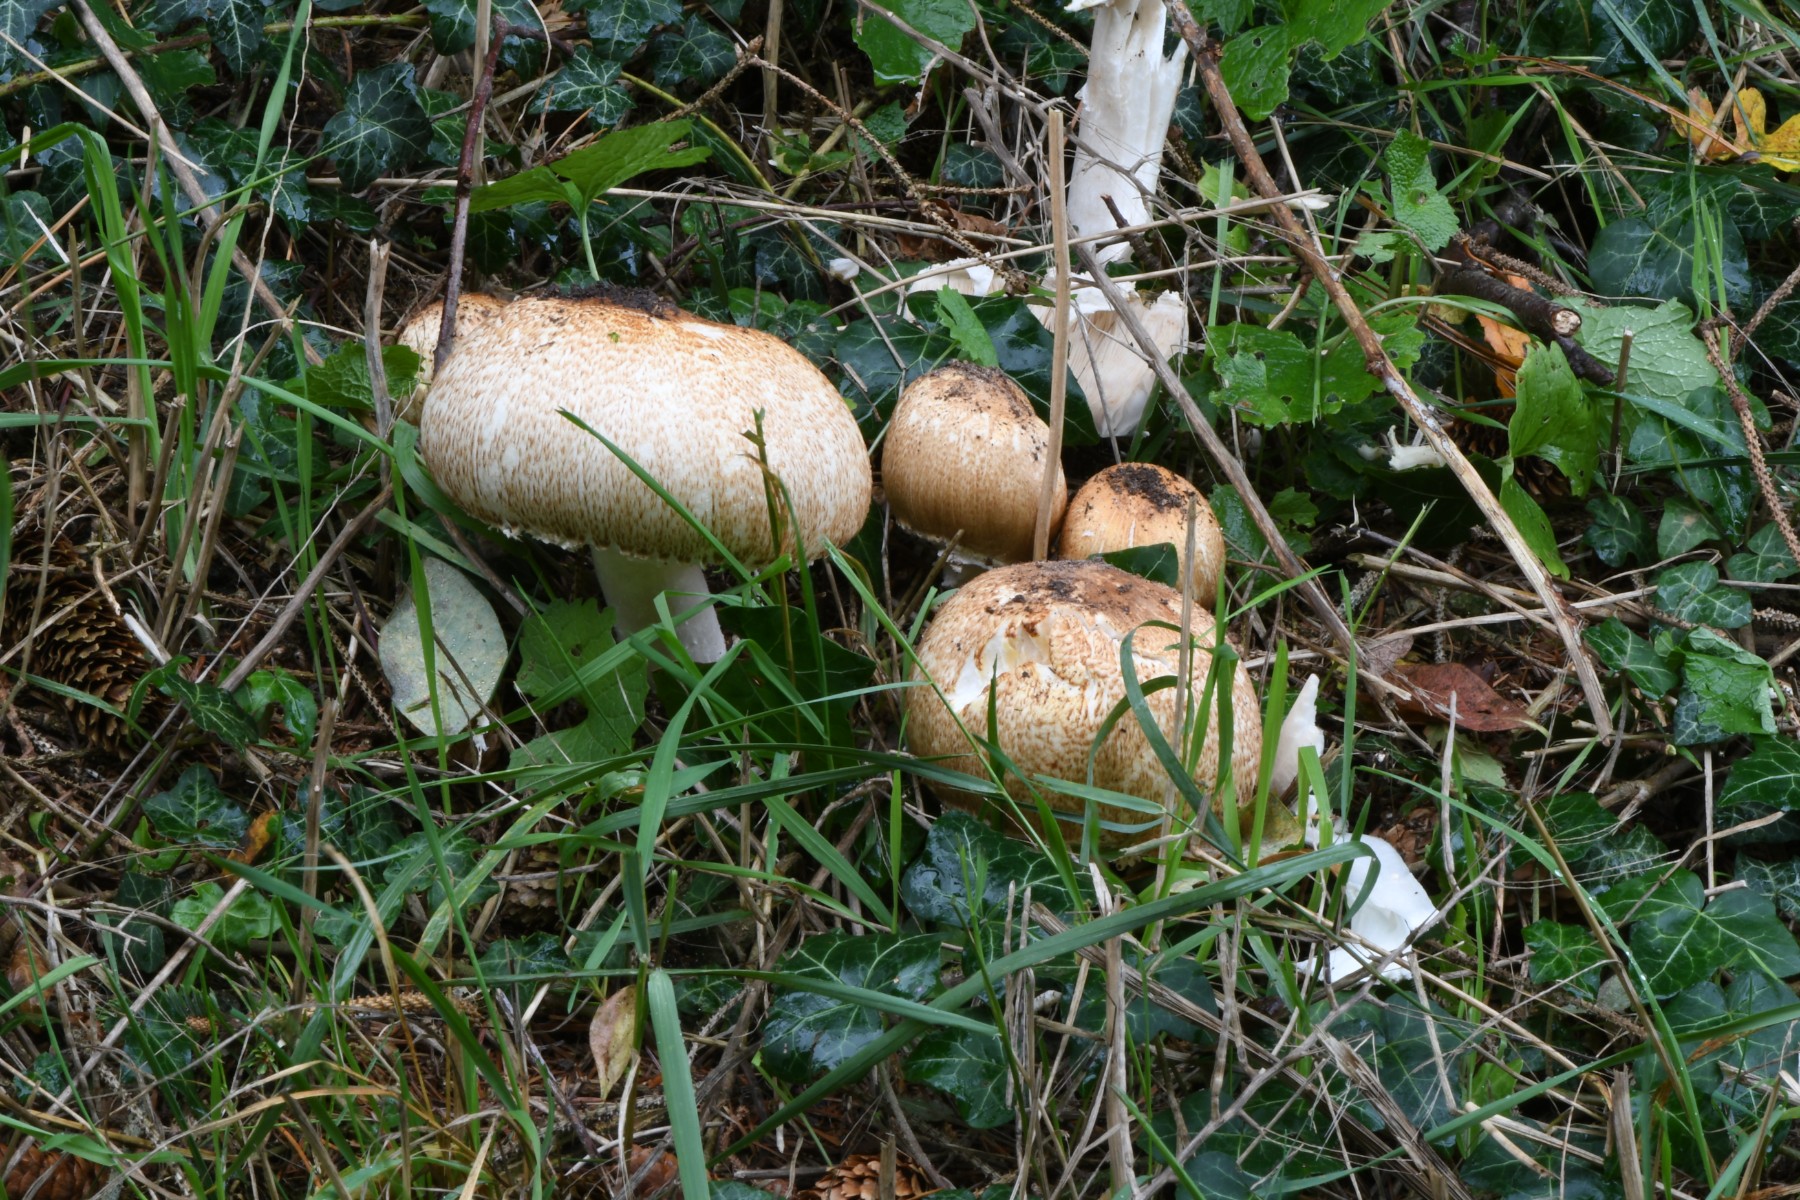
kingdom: Fungi
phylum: Basidiomycota
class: Agaricomycetes
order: Agaricales
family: Agaricaceae
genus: Agaricus
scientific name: Agaricus augustus
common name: prægtig champignon
